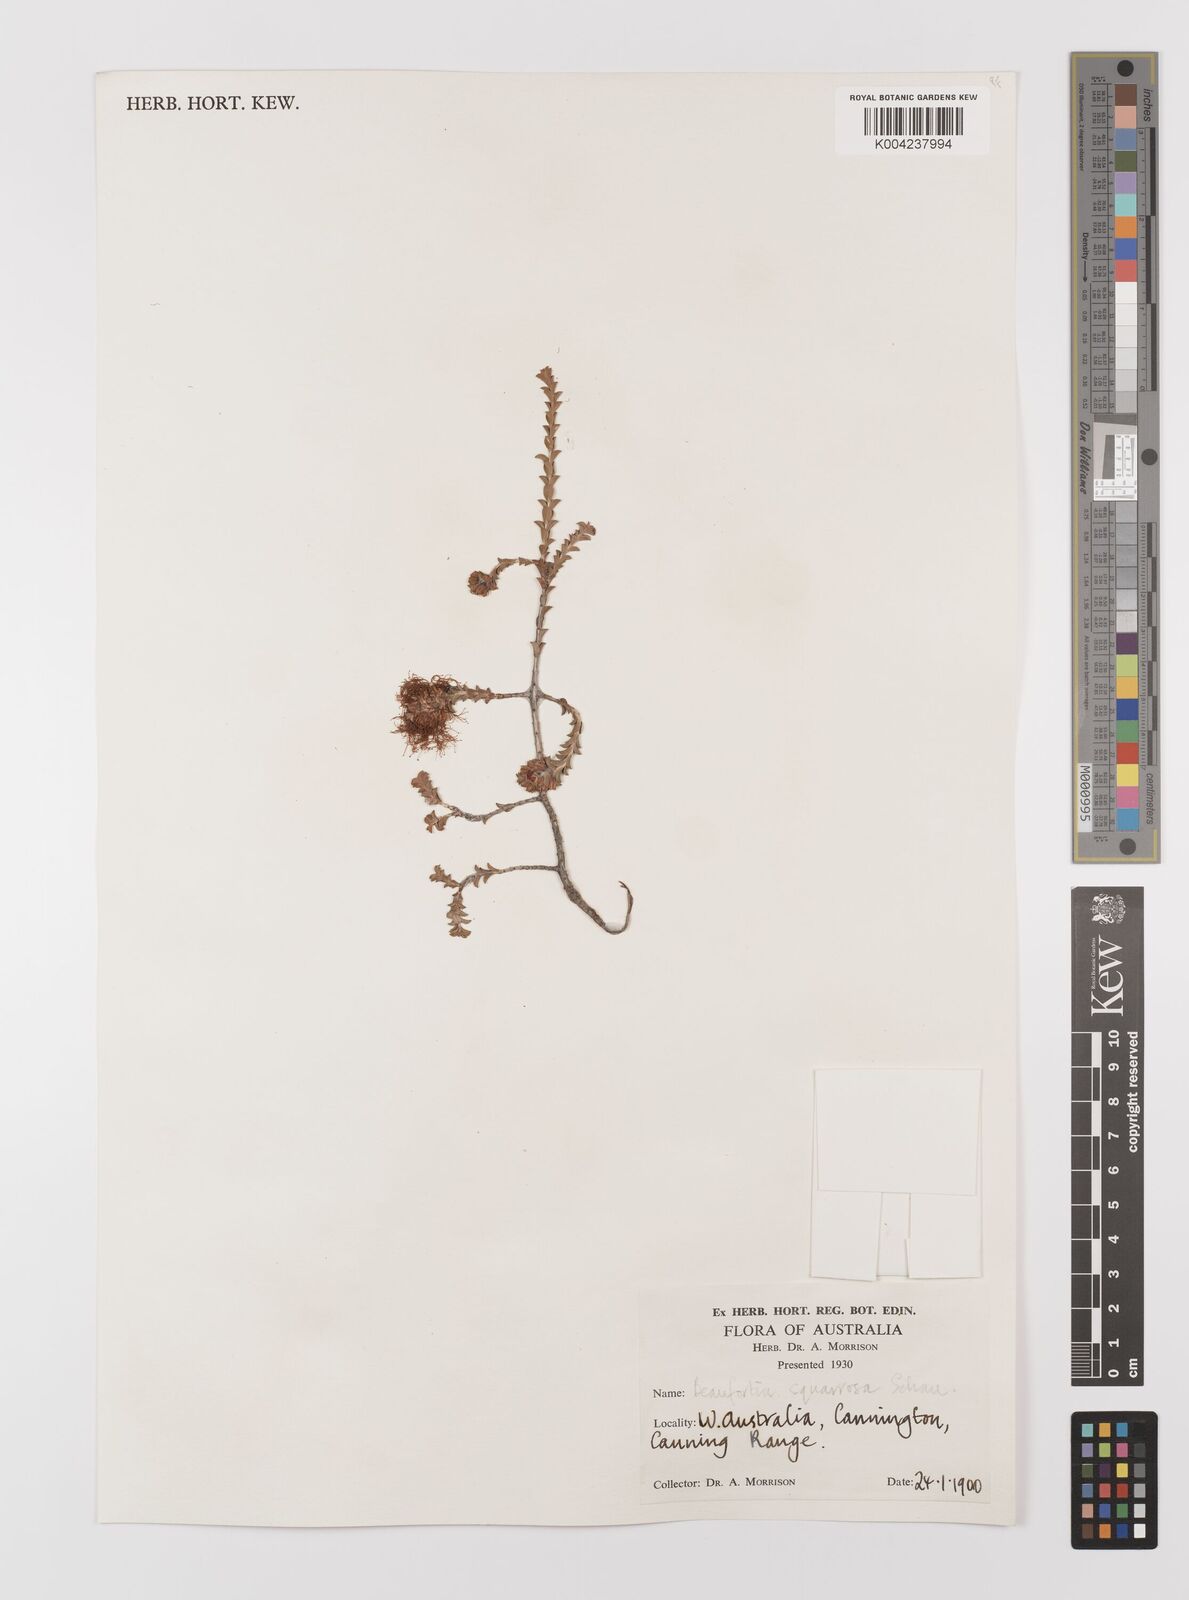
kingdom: Plantae
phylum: Tracheophyta
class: Magnoliopsida
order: Myrtales
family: Myrtaceae
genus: Melaleuca
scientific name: Melaleuca pulcherrima
